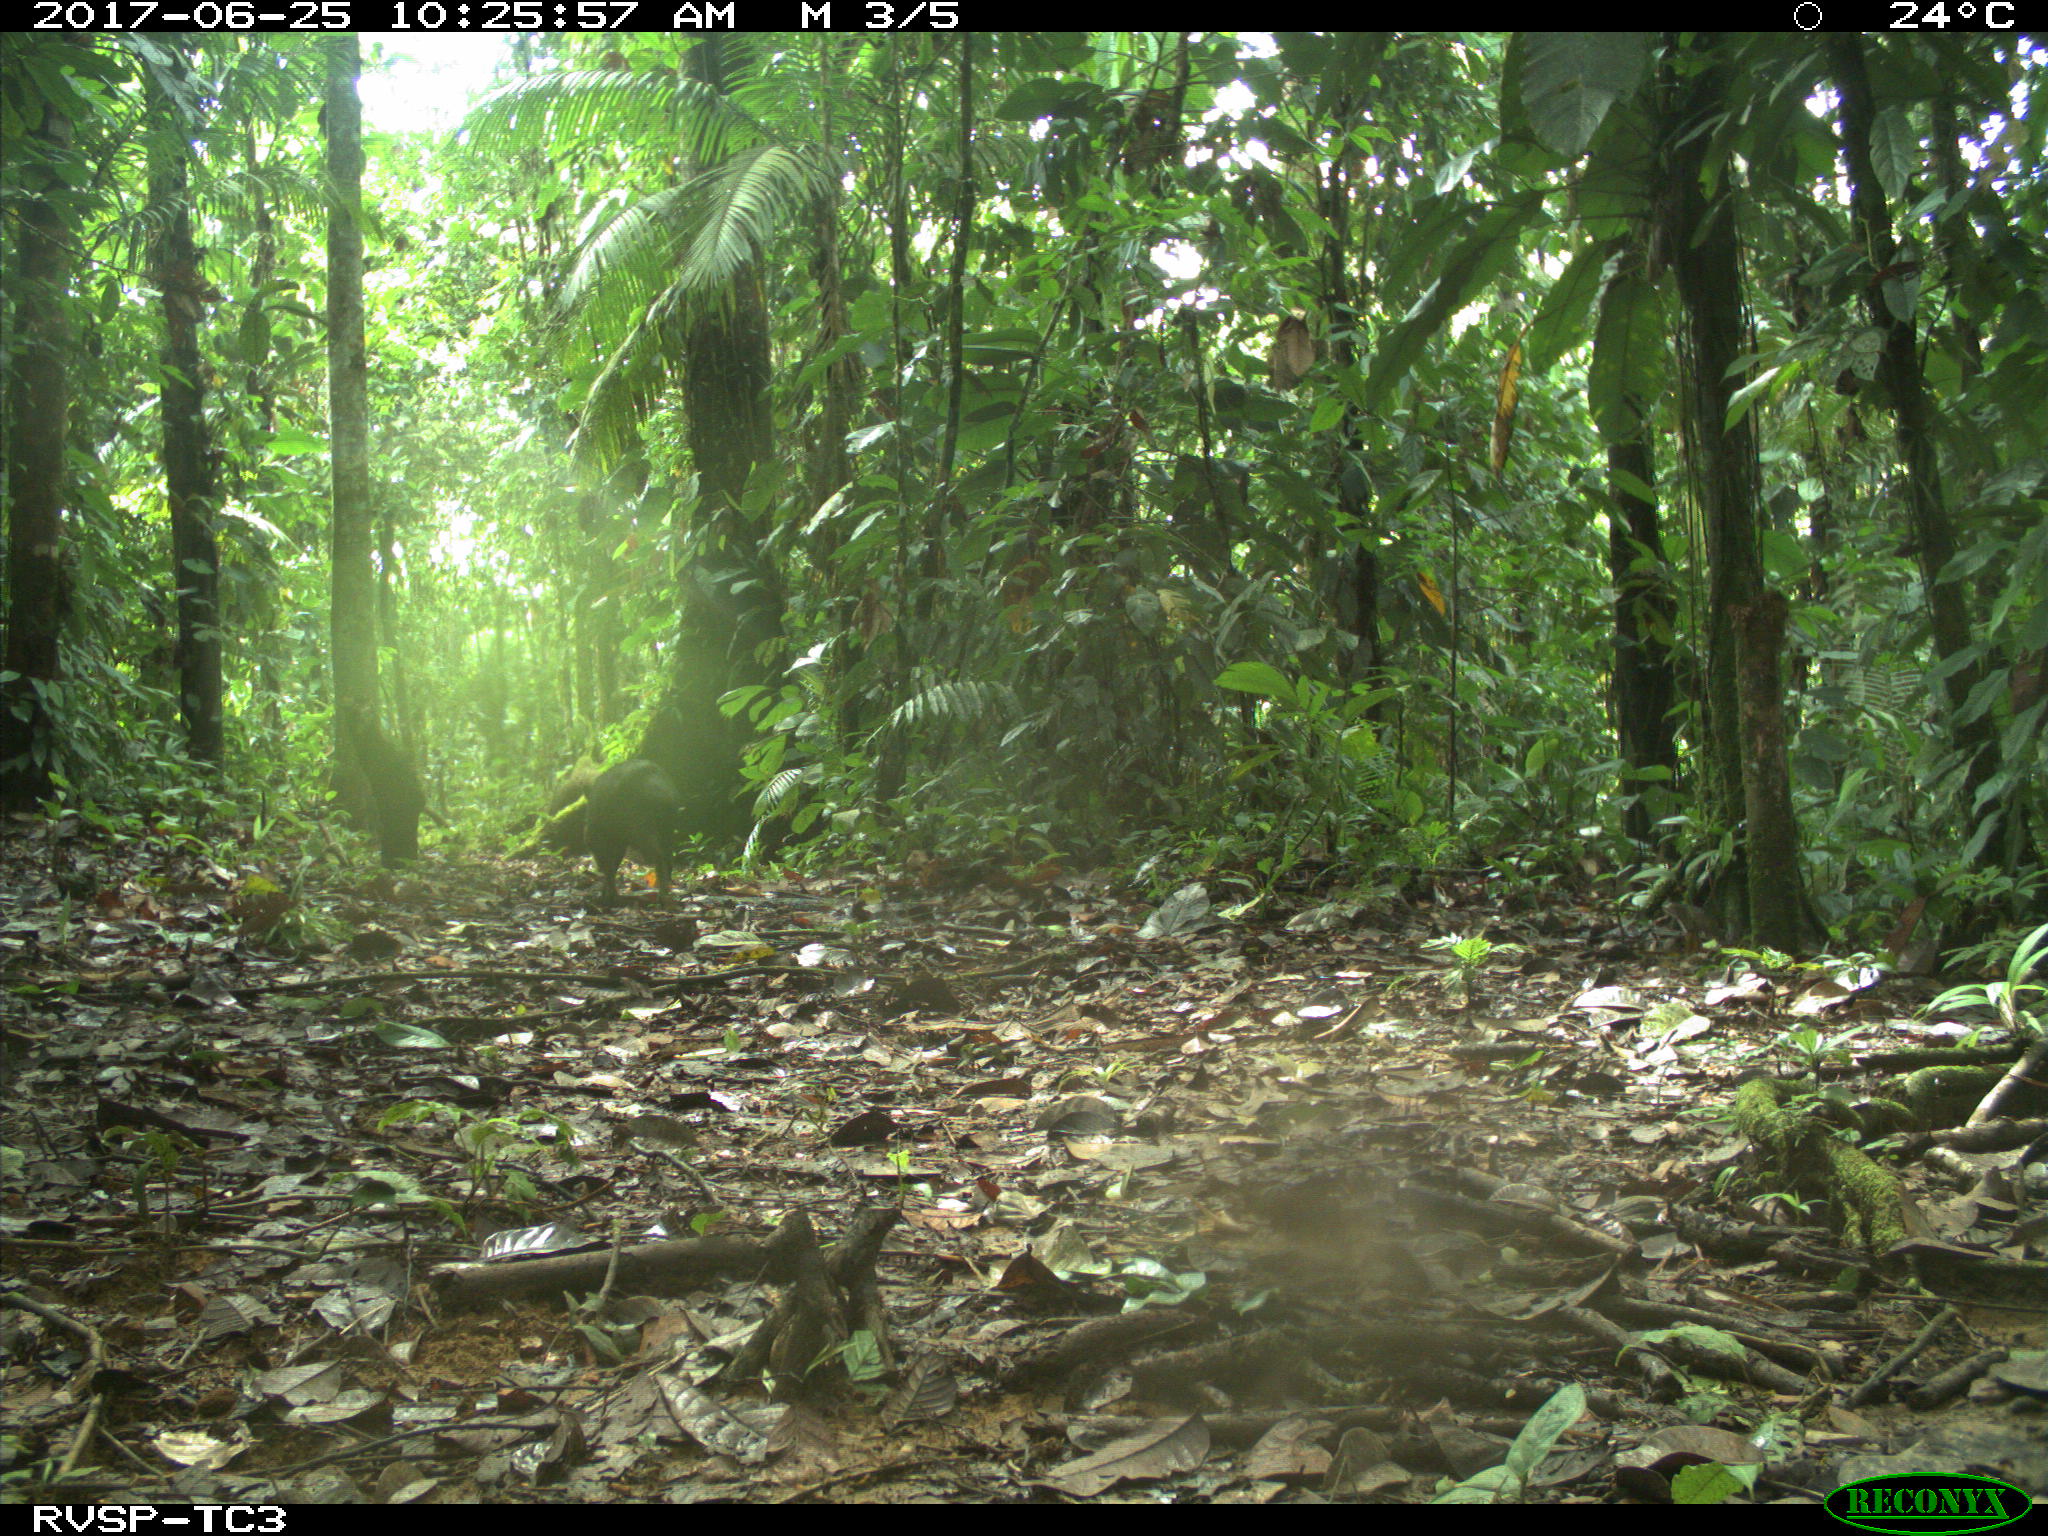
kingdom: Animalia
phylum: Chordata
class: Mammalia
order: Artiodactyla
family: Tayassuidae
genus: Tayassu
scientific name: Tayassu pecari
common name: White-lipped peccary
